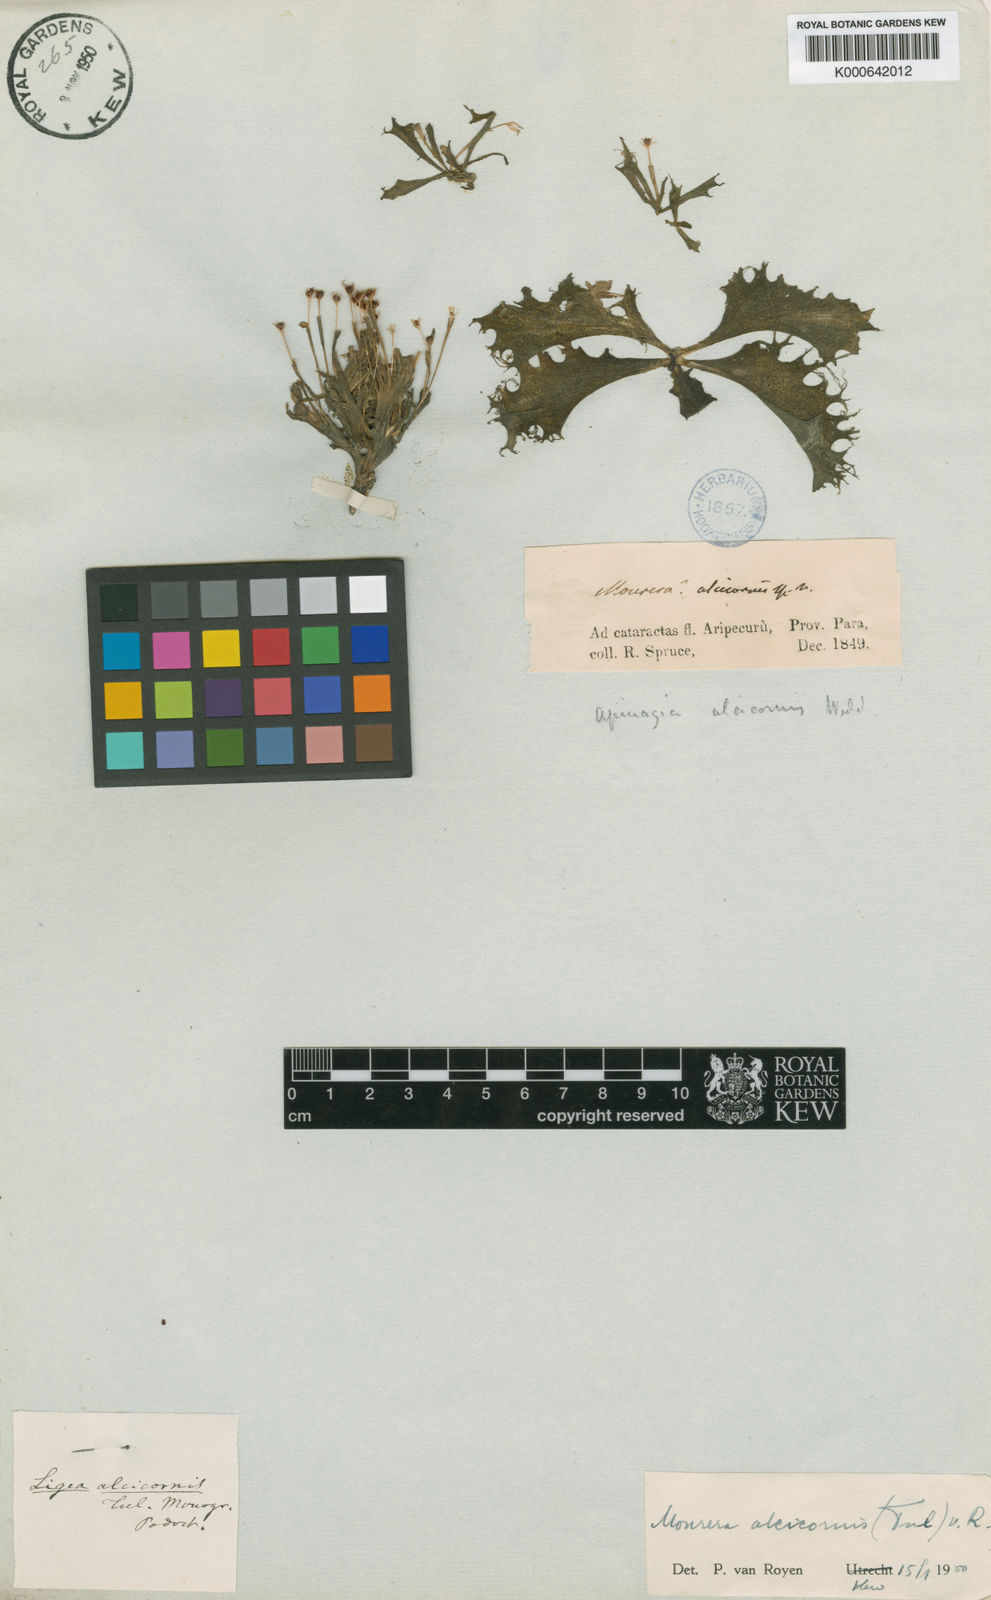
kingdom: Plantae
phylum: Tracheophyta
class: Magnoliopsida
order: Malpighiales
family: Podostemaceae
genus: Mourera
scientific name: Mourera alcicornis
